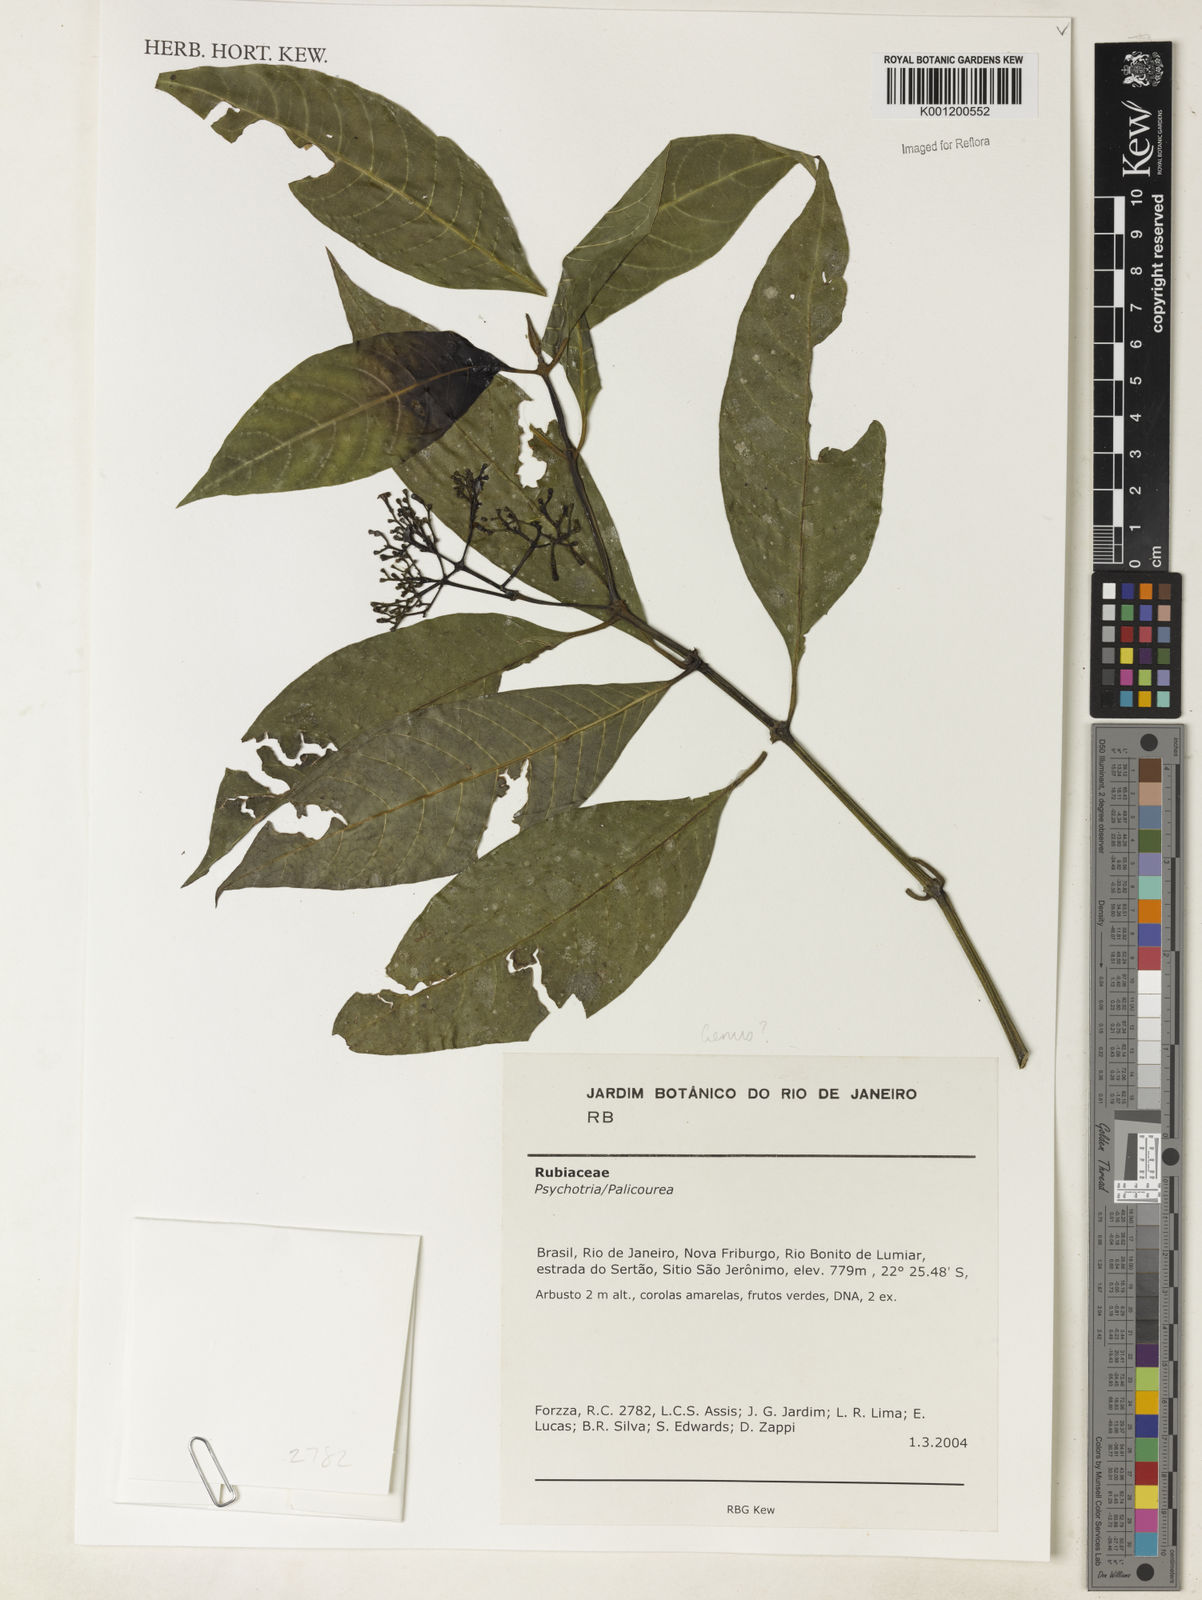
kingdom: Plantae
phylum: Tracheophyta
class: Magnoliopsida
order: Gentianales
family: Rubiaceae
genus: Psychotria
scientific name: Psychotria
